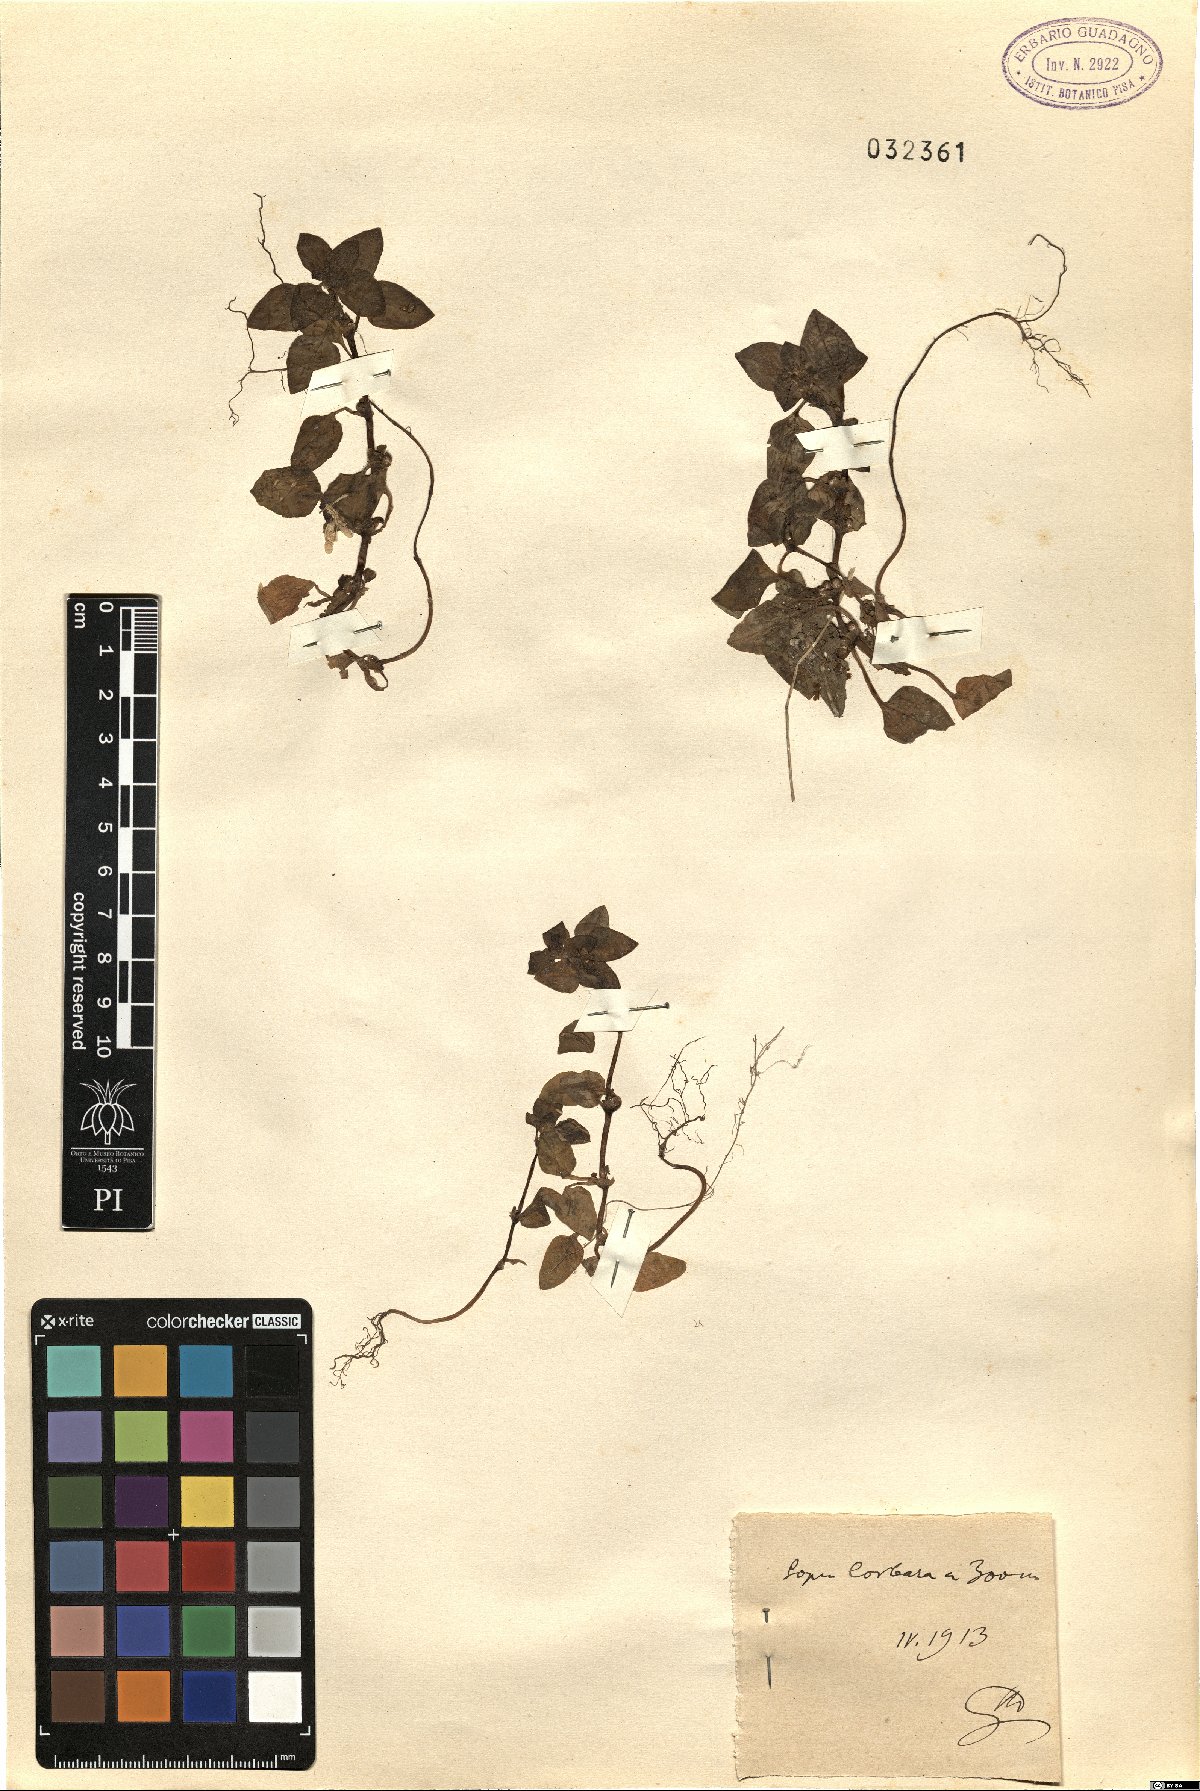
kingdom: Plantae
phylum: Tracheophyta
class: Magnoliopsida
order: Gentianales
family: Rubiaceae
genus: Theligonum
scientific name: Theligonum
